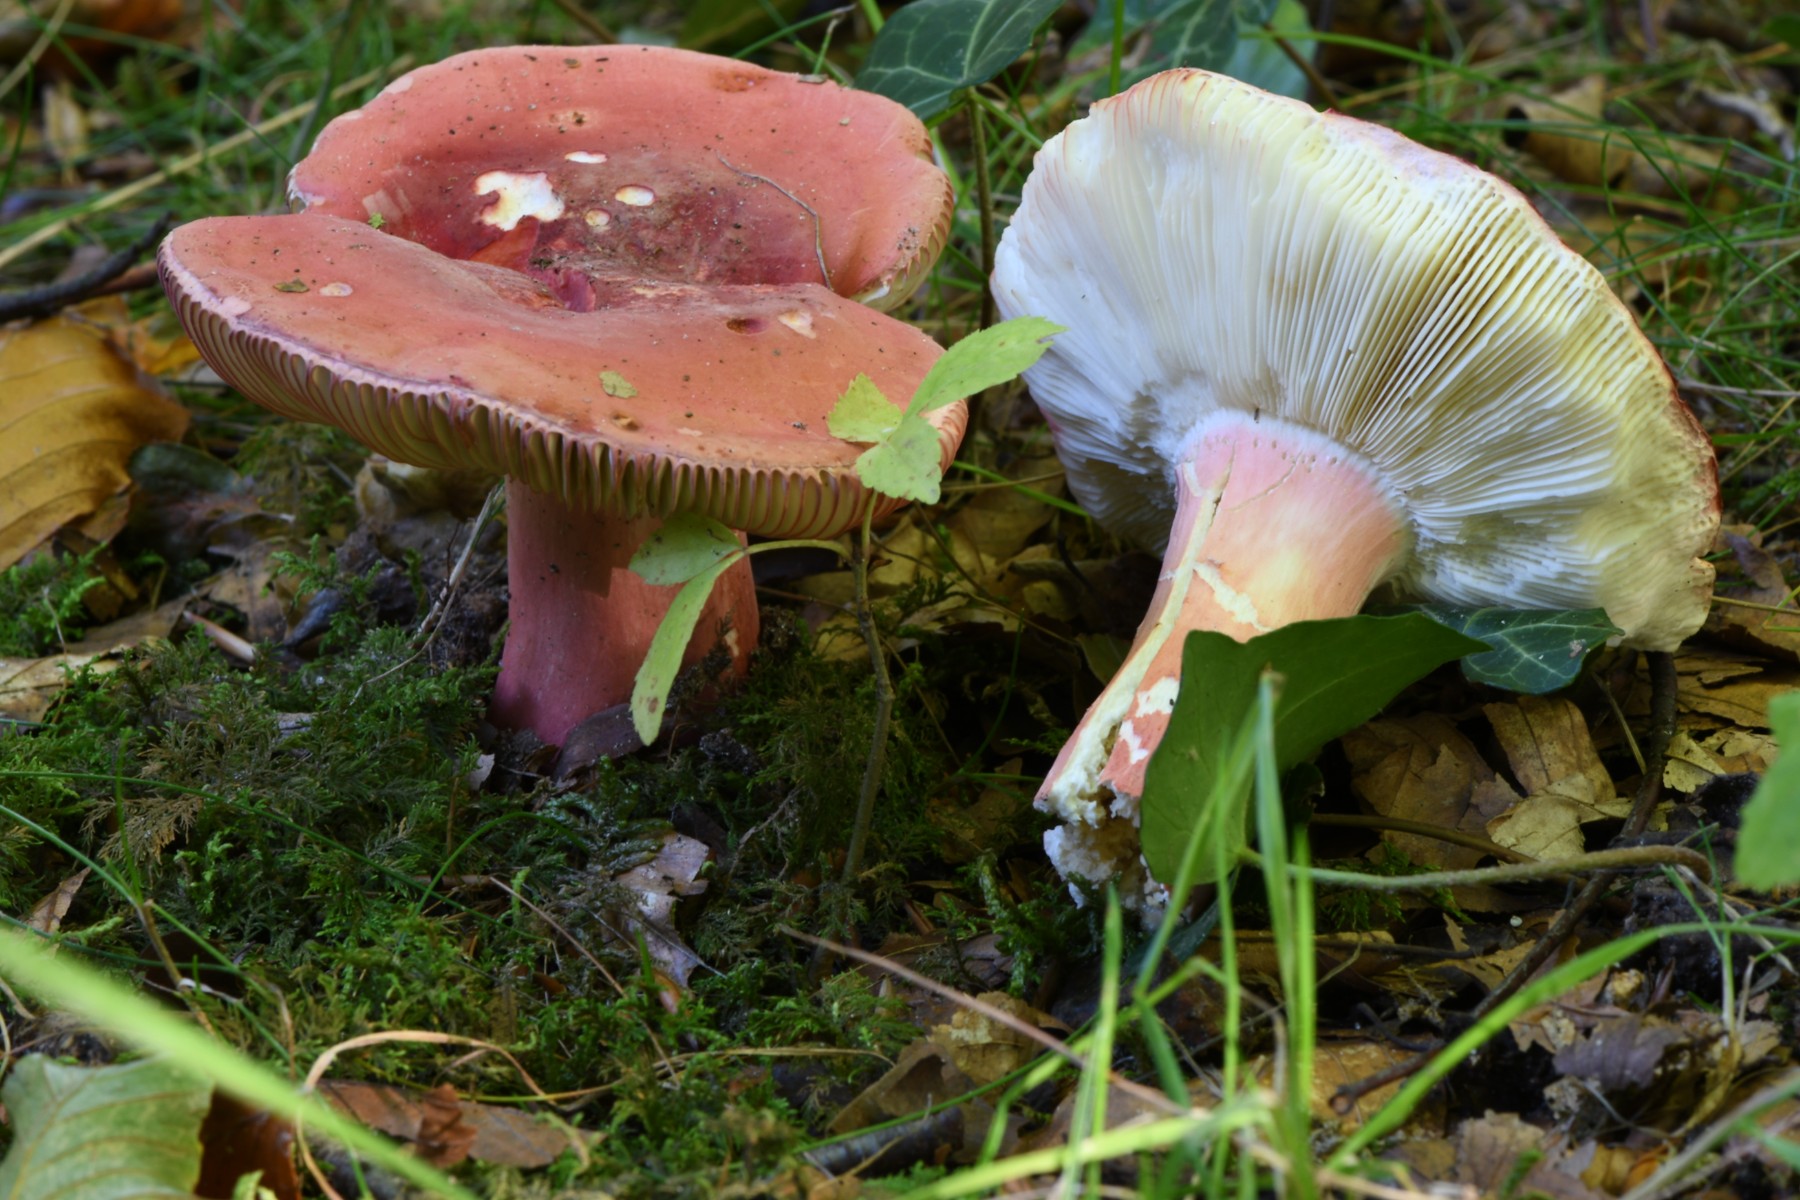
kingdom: Fungi
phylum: Basidiomycota
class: Agaricomycetes
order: Russulales
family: Russulaceae
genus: Russula
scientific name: Russula rosea
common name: fastkødet skørhat
